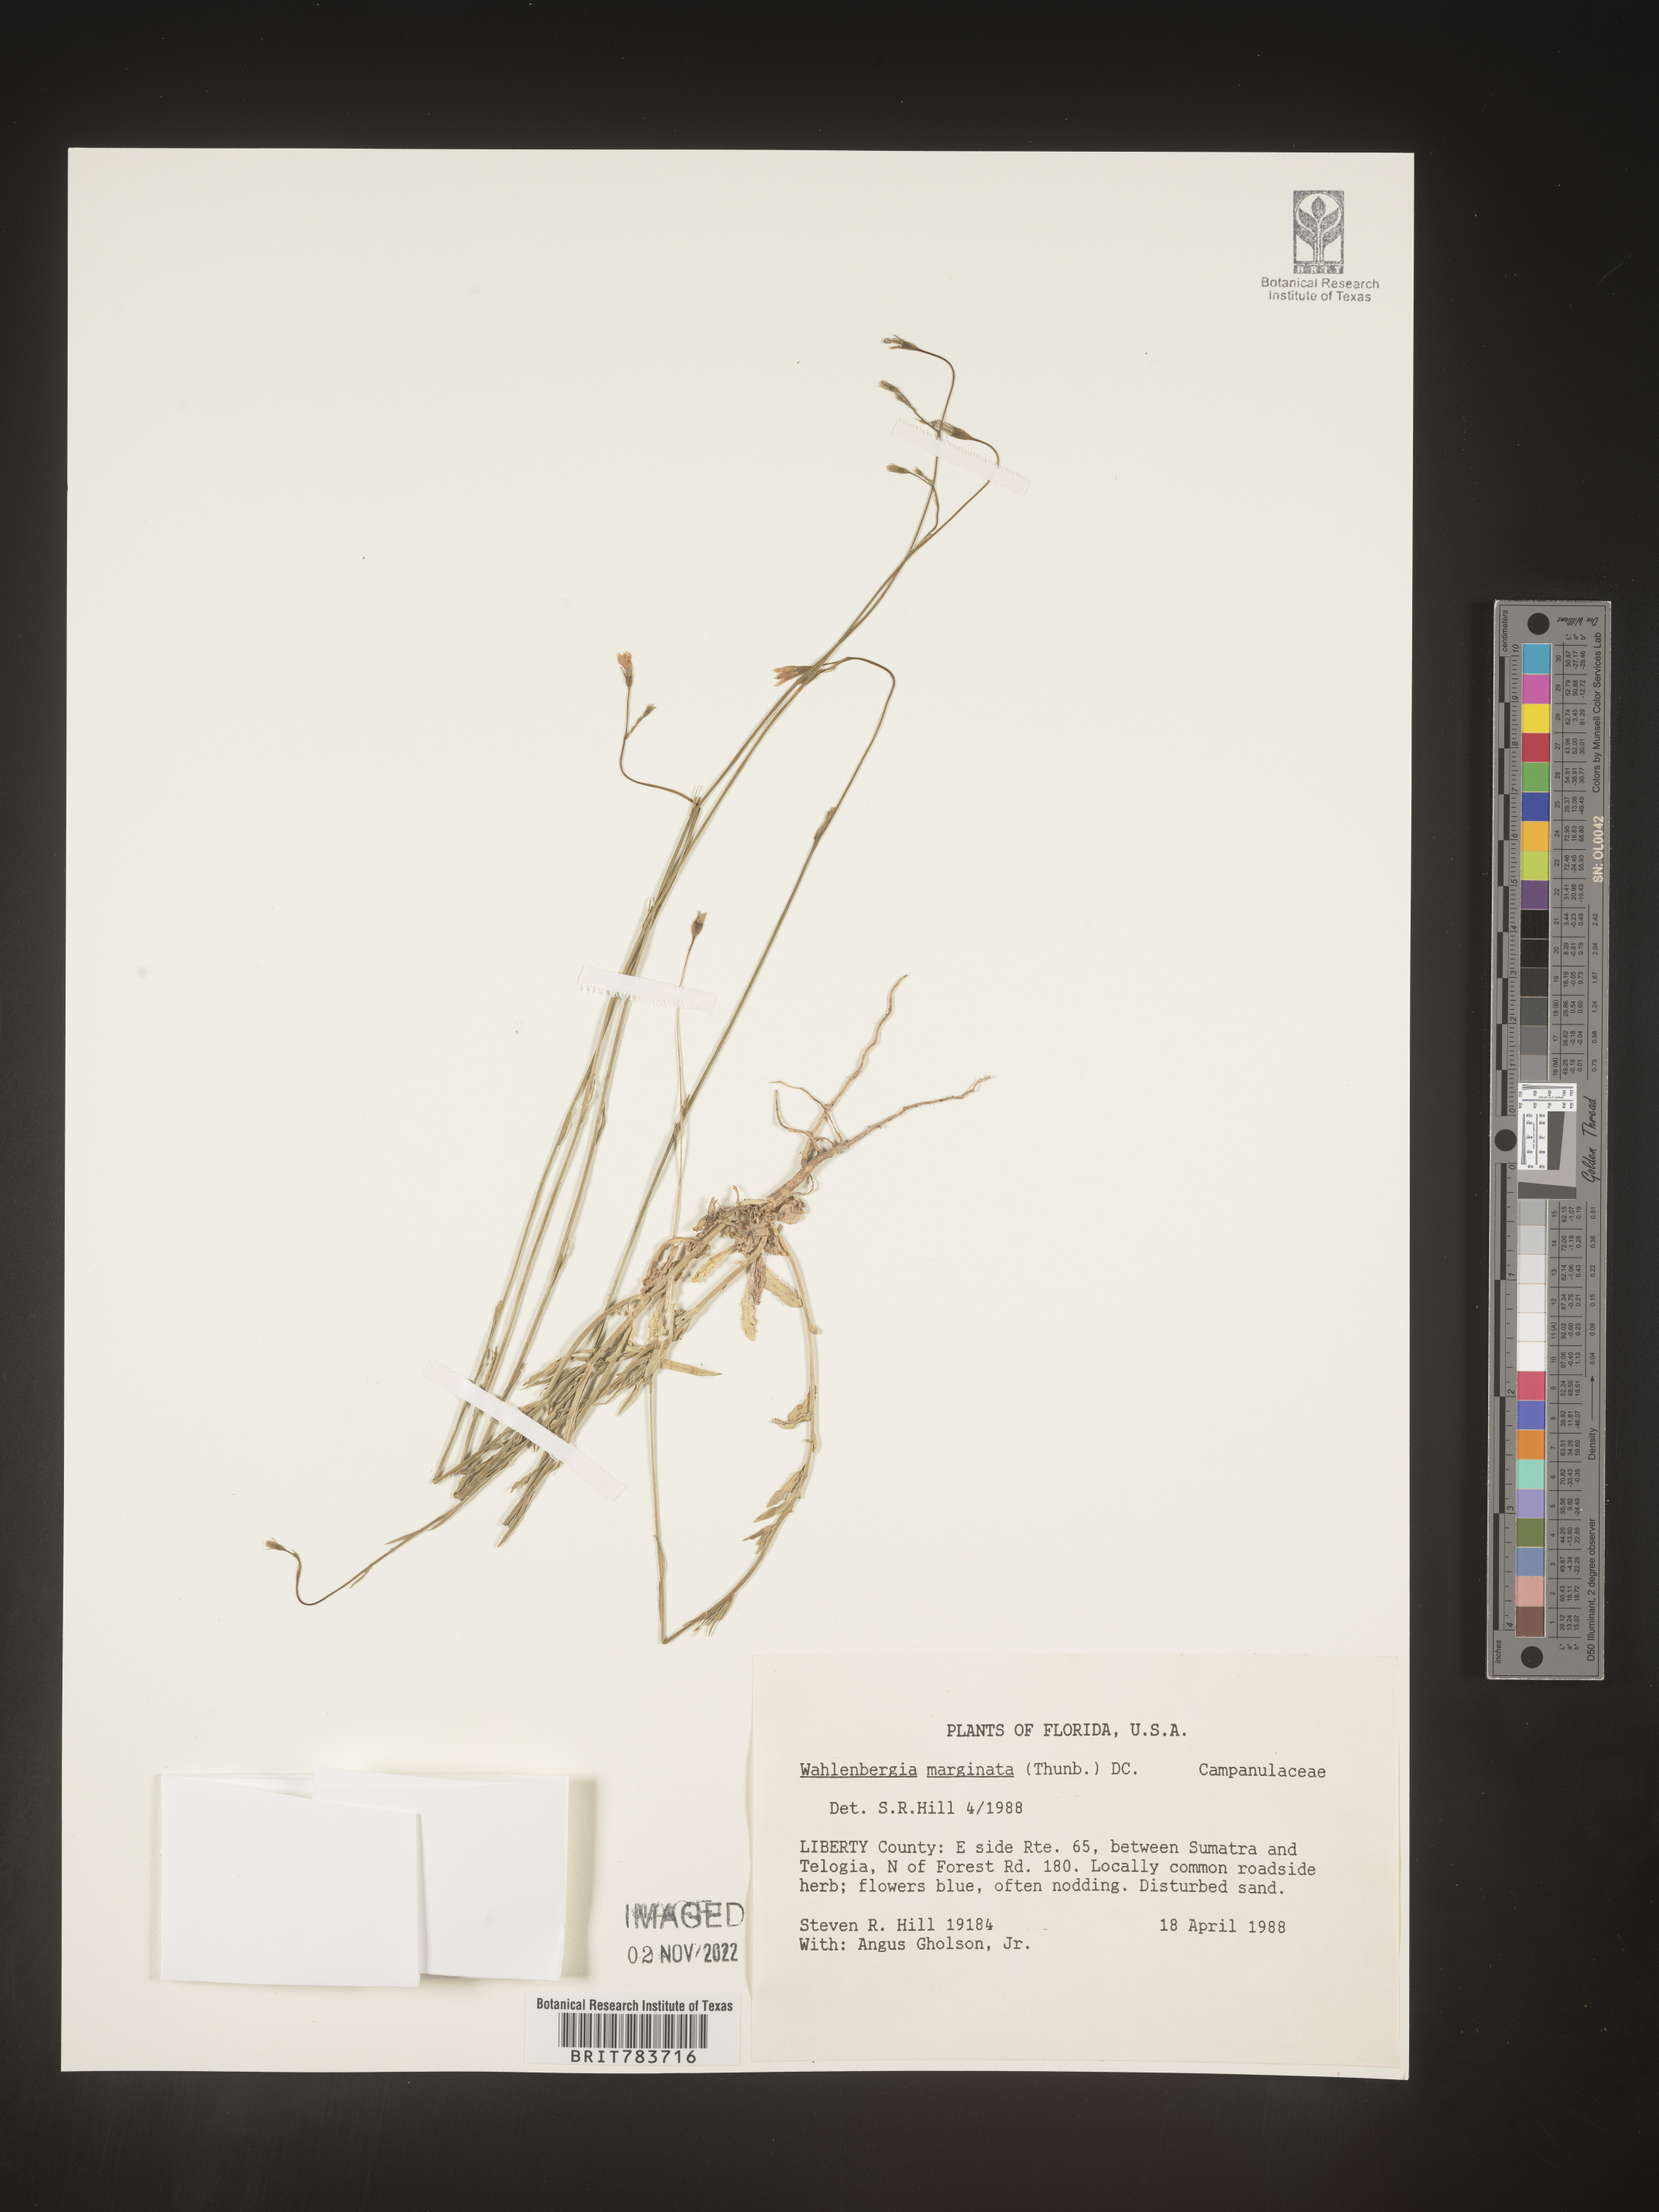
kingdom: Plantae
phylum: Tracheophyta
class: Magnoliopsida
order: Asterales
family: Campanulaceae
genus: Wahlenbergia
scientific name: Wahlenbergia marginata
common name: Southern rockbell
